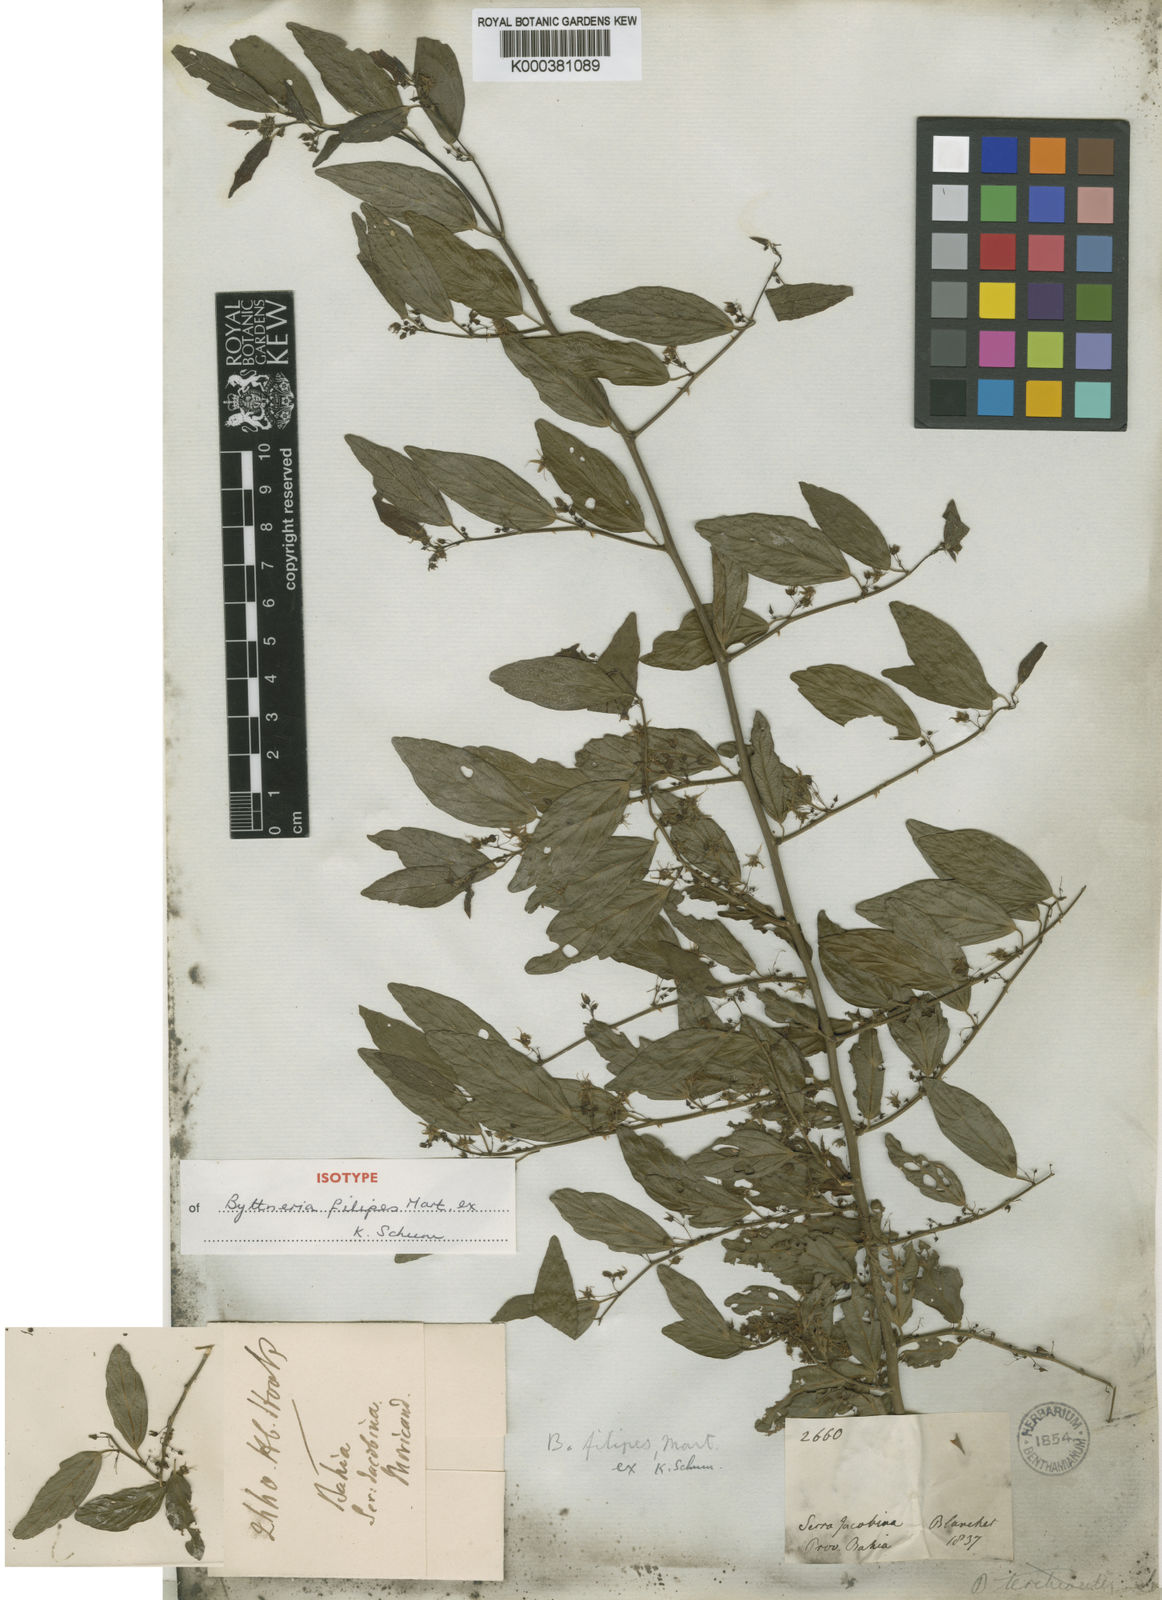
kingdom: Plantae
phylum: Tracheophyta
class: Magnoliopsida
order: Malvales
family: Malvaceae
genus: Byttneria
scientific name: Byttneria filipes
